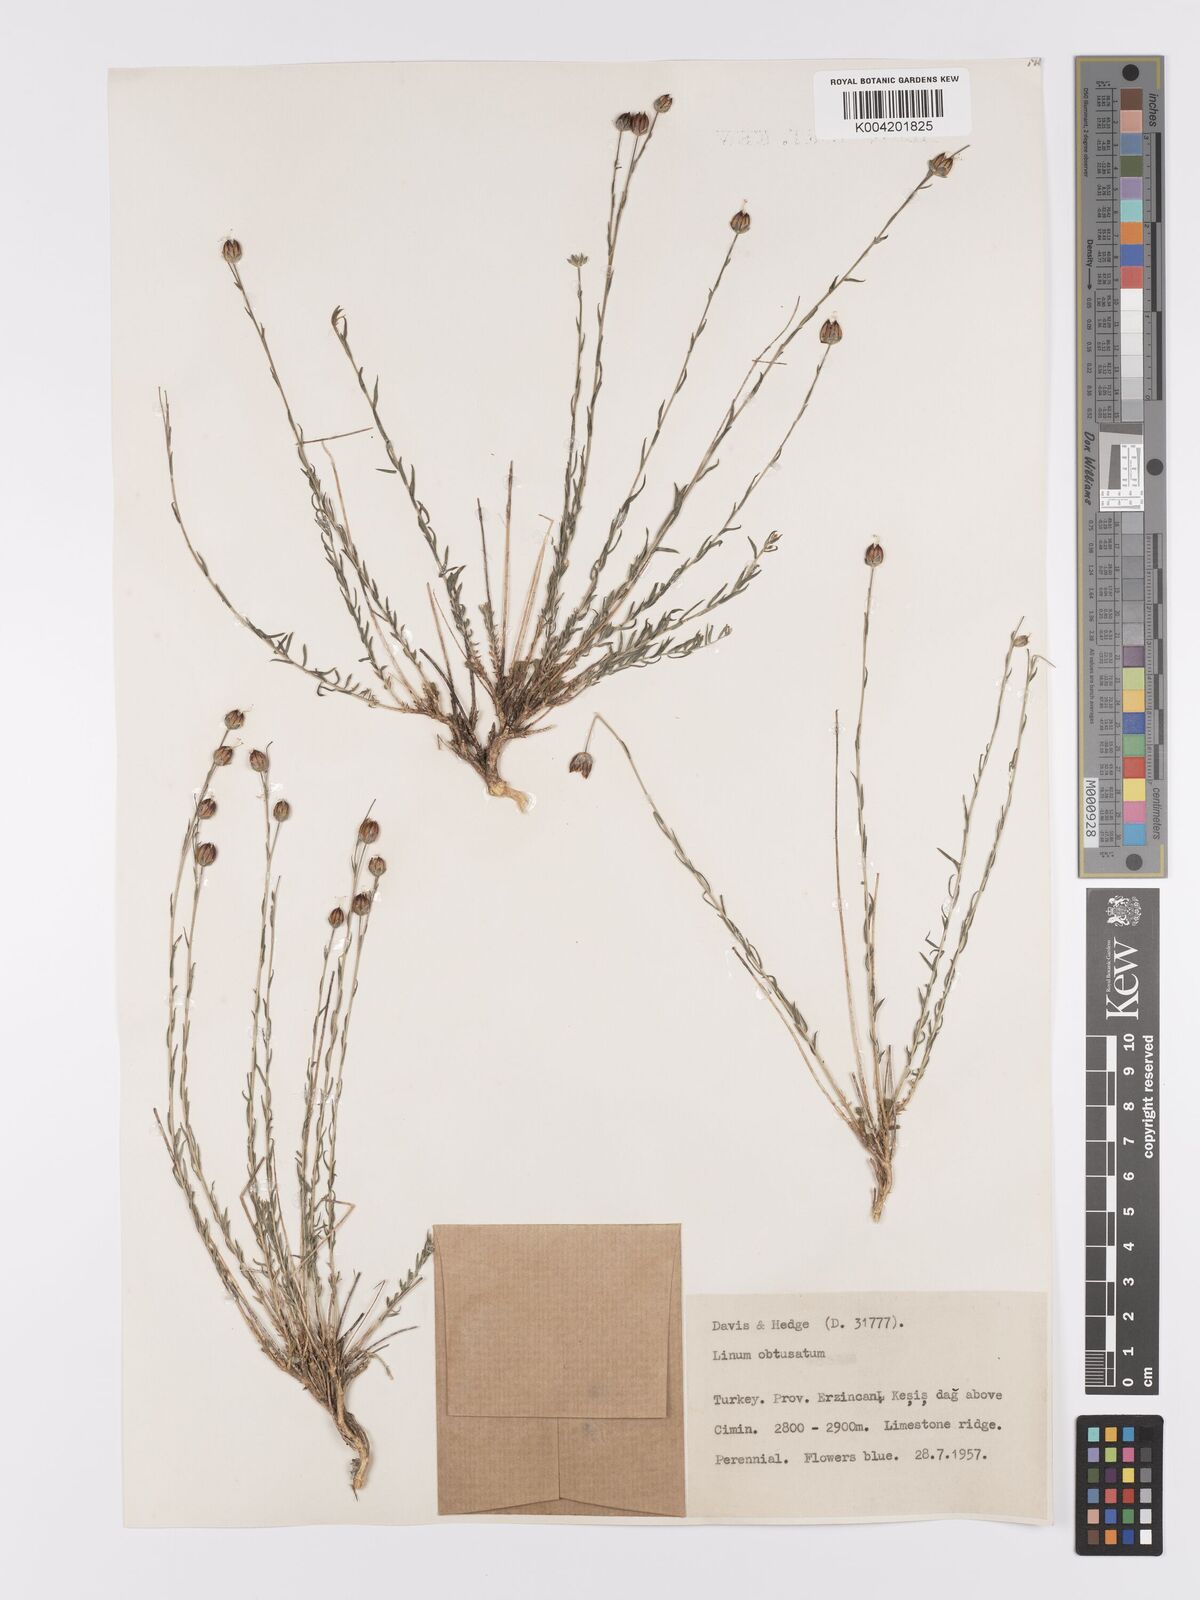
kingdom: Plantae
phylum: Tracheophyta
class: Magnoliopsida
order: Malpighiales
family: Linaceae
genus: Linum
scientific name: Linum obtusatum
